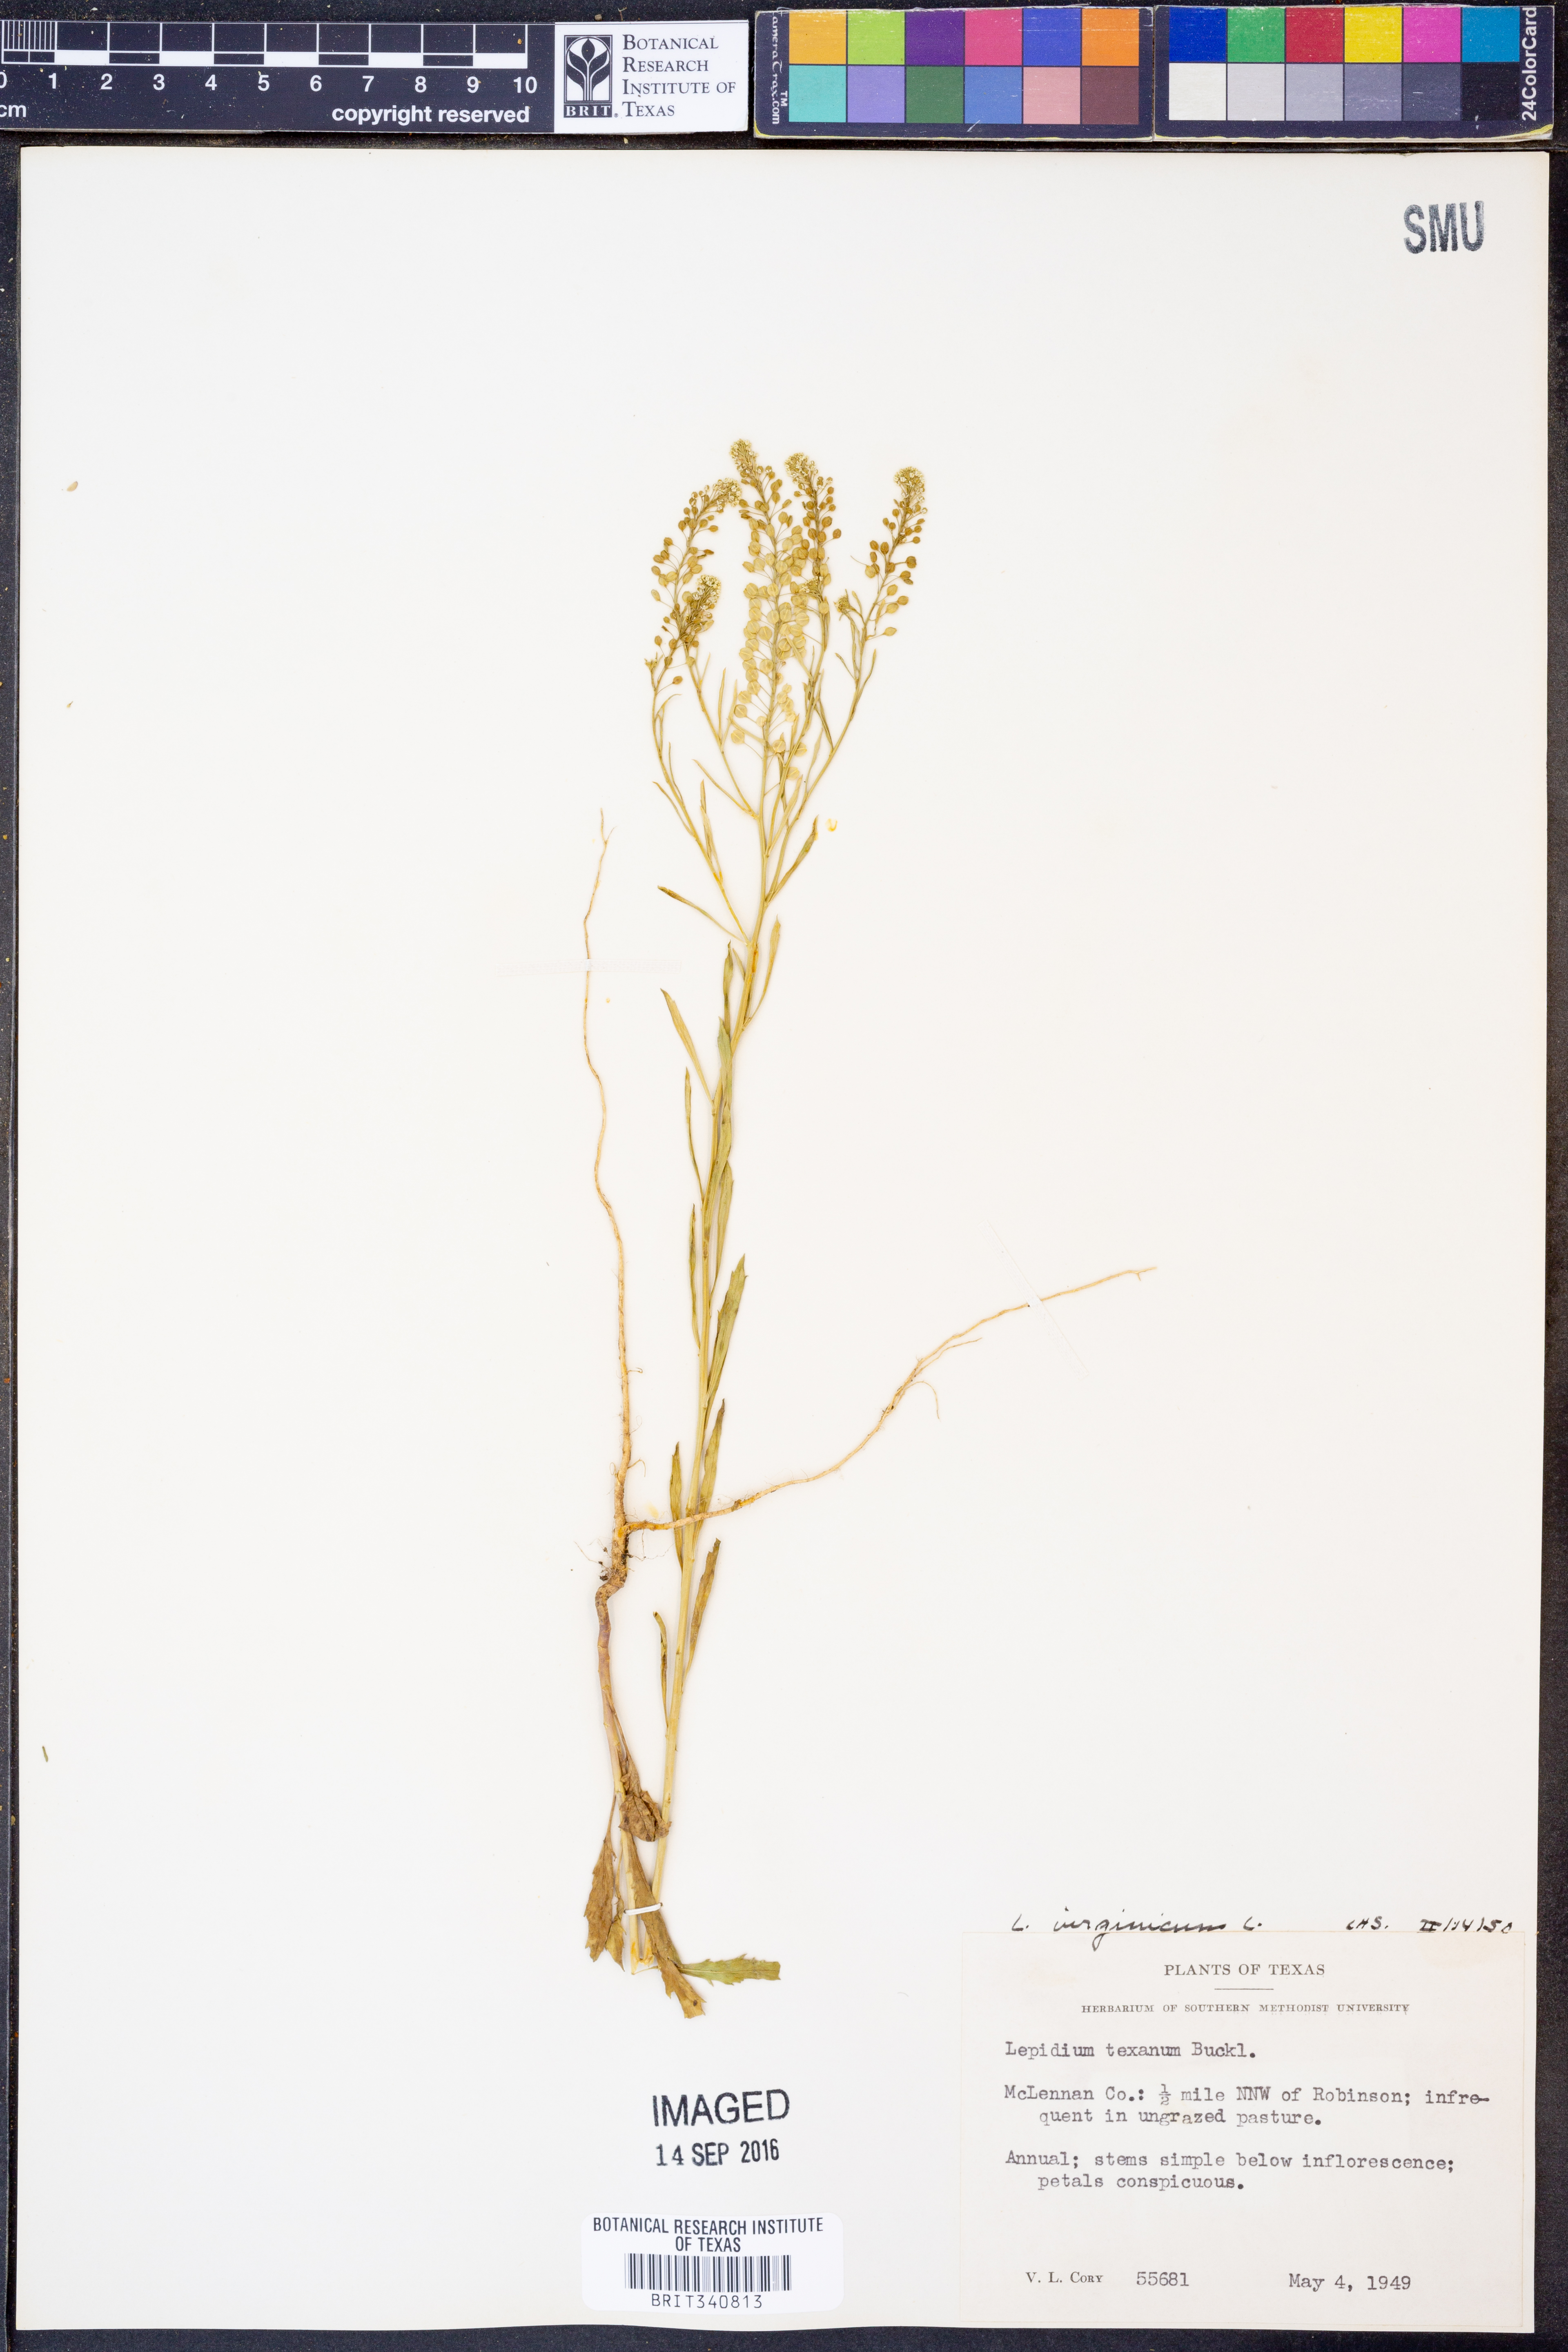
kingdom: Plantae
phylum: Tracheophyta
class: Magnoliopsida
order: Brassicales
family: Brassicaceae
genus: Lepidium
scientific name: Lepidium virginicum
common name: Least pepperwort
